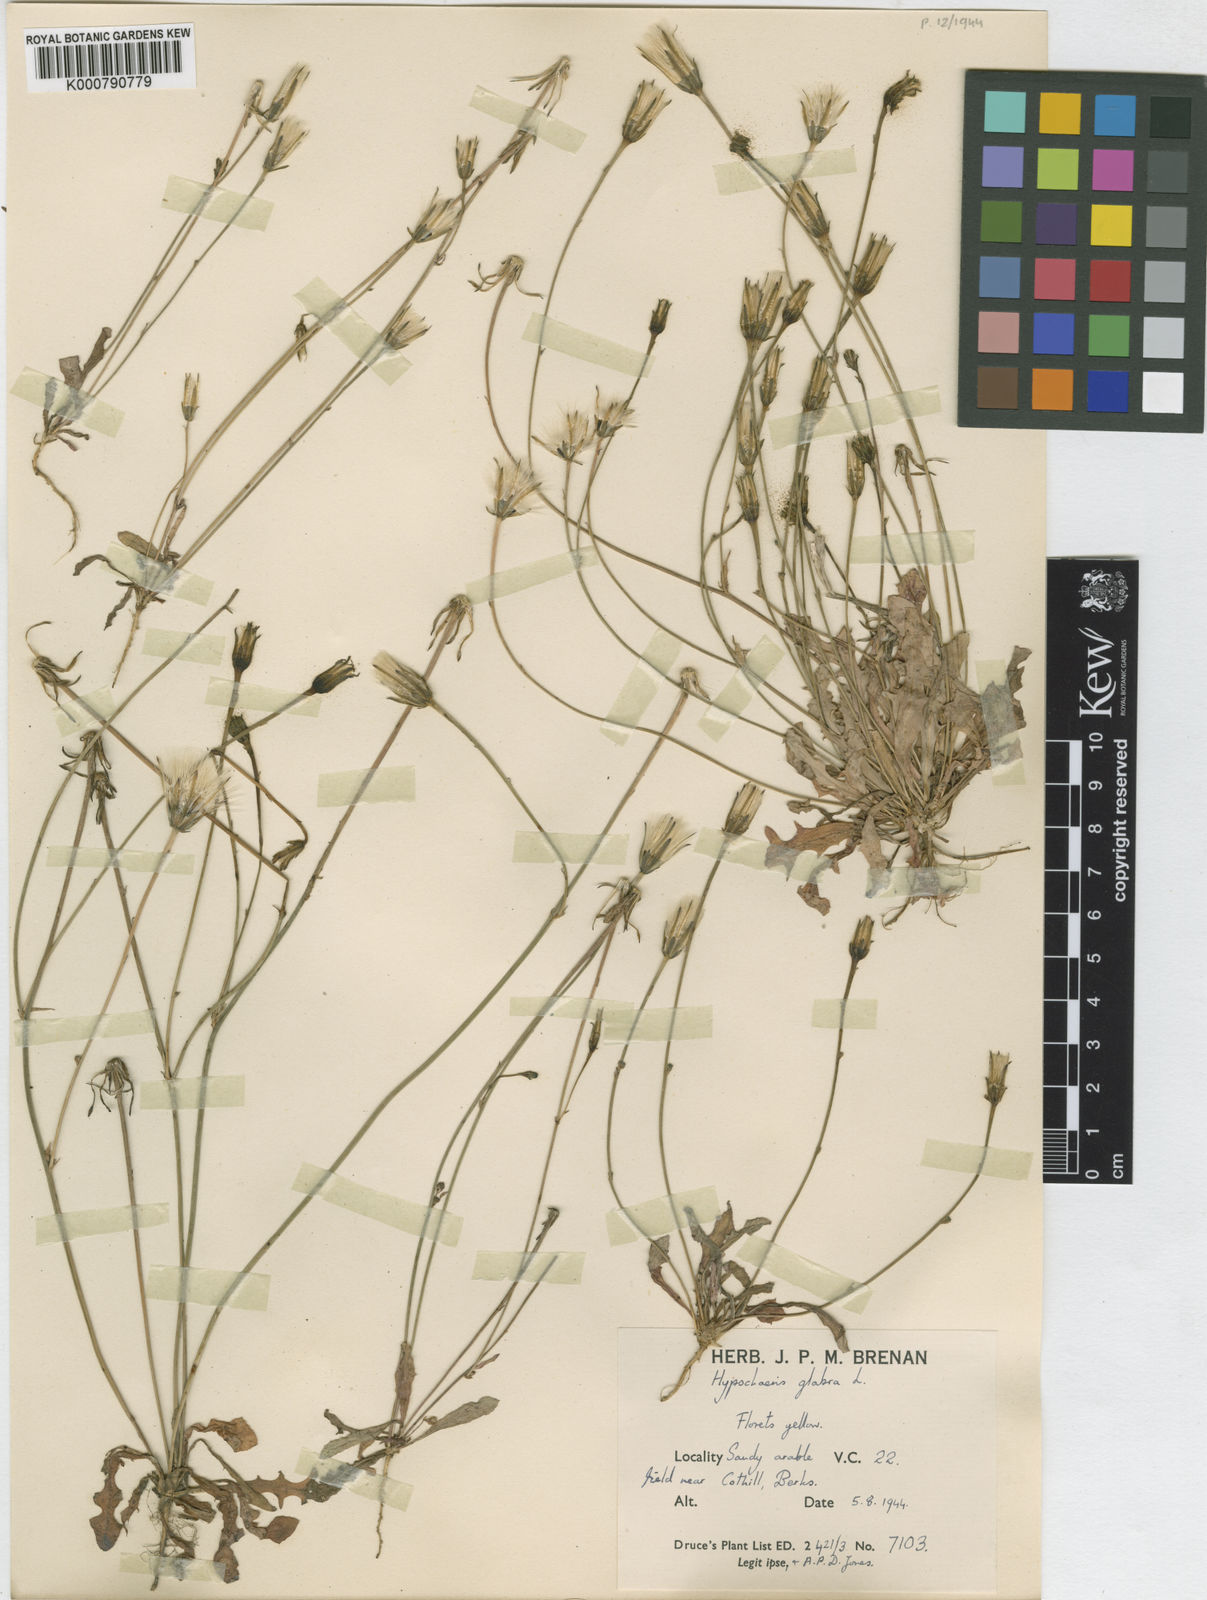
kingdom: Plantae
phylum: Tracheophyta
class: Magnoliopsida
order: Asterales
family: Asteraceae
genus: Hypochaeris
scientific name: Hypochaeris glabra
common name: Smooth catsear
